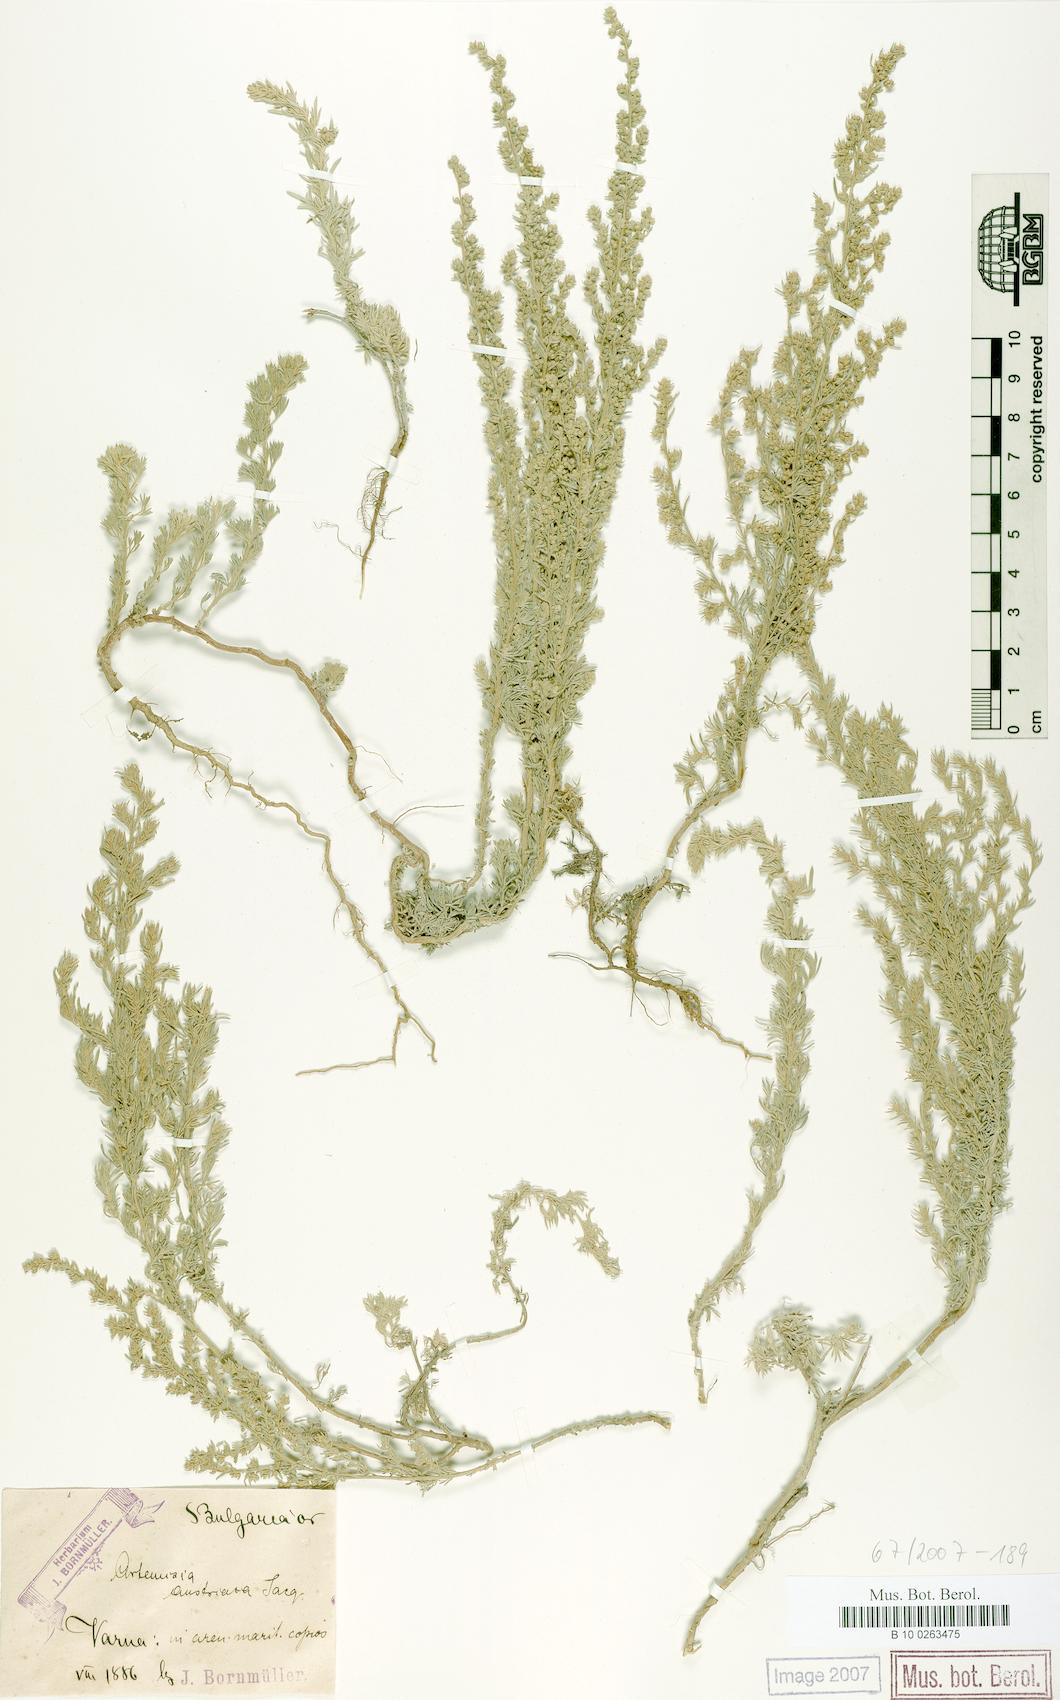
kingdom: Plantae
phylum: Tracheophyta
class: Magnoliopsida
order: Asterales
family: Asteraceae
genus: Artemisia
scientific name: Artemisia austriaca
